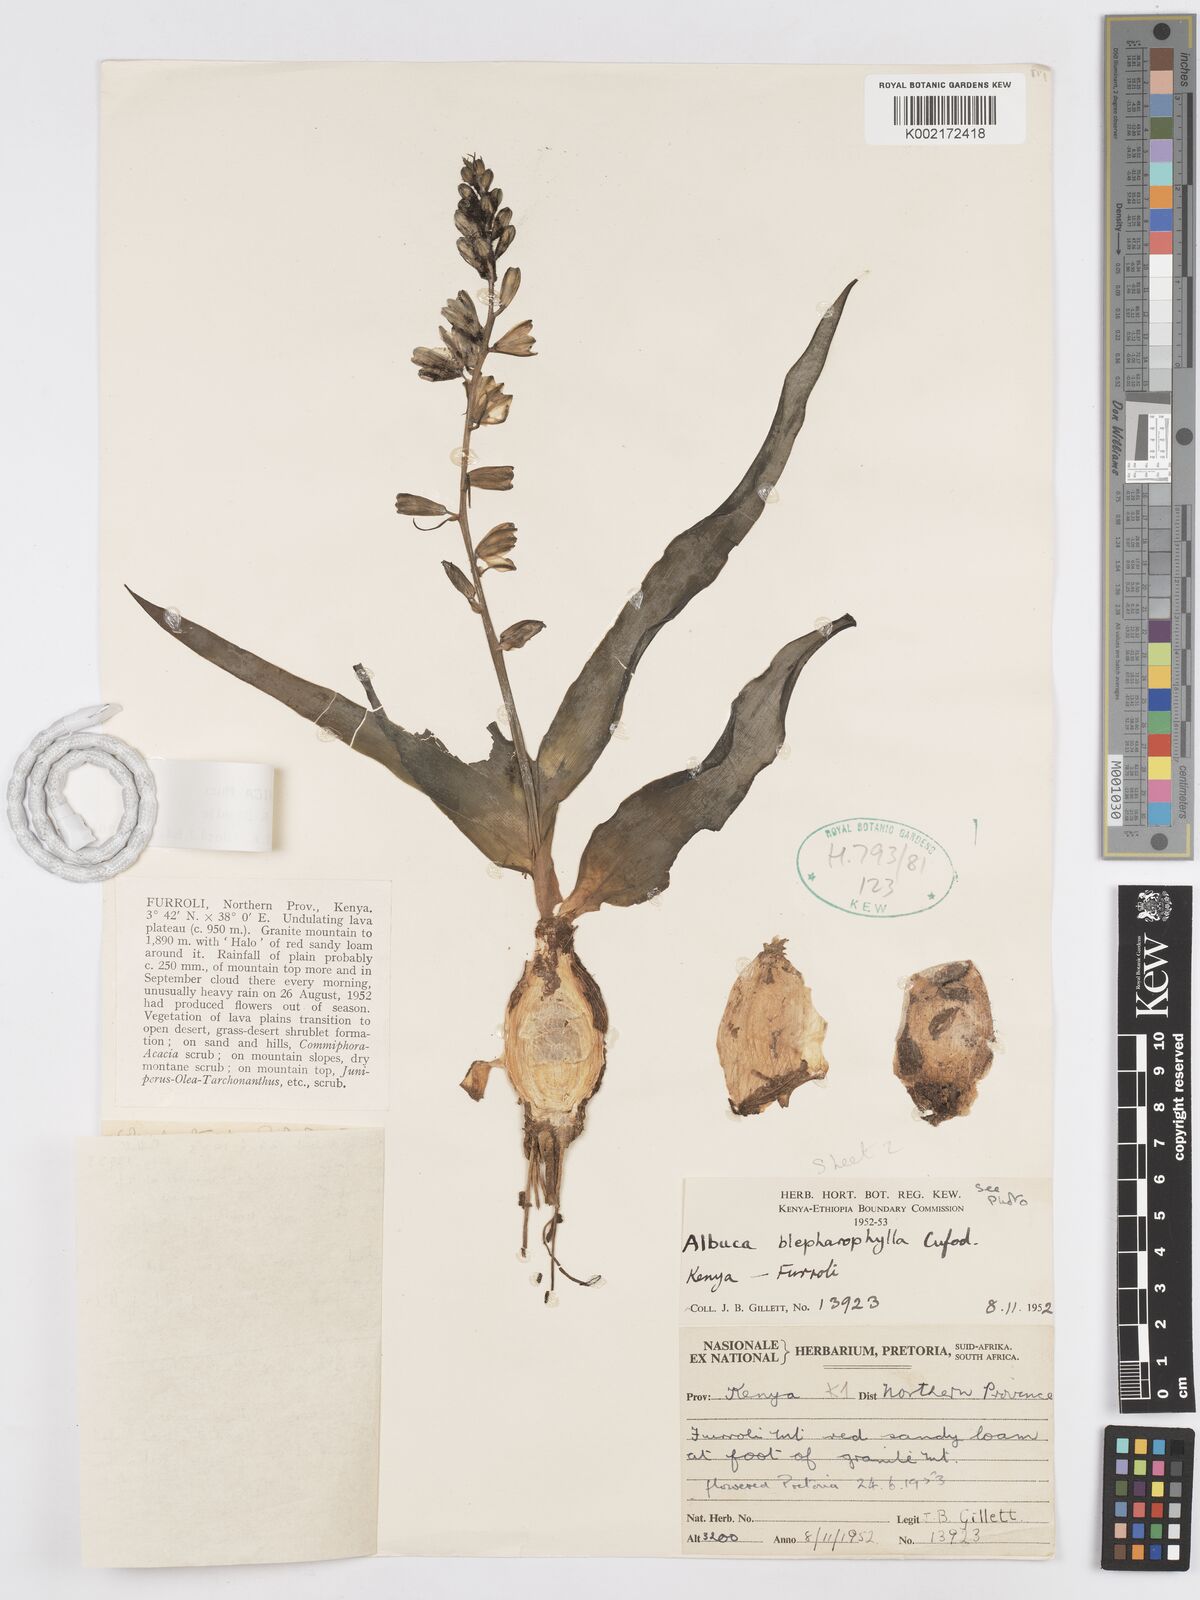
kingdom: Plantae
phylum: Tracheophyta
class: Liliopsida
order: Asparagales
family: Asparagaceae
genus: Albuca
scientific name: Albuca abyssinica
